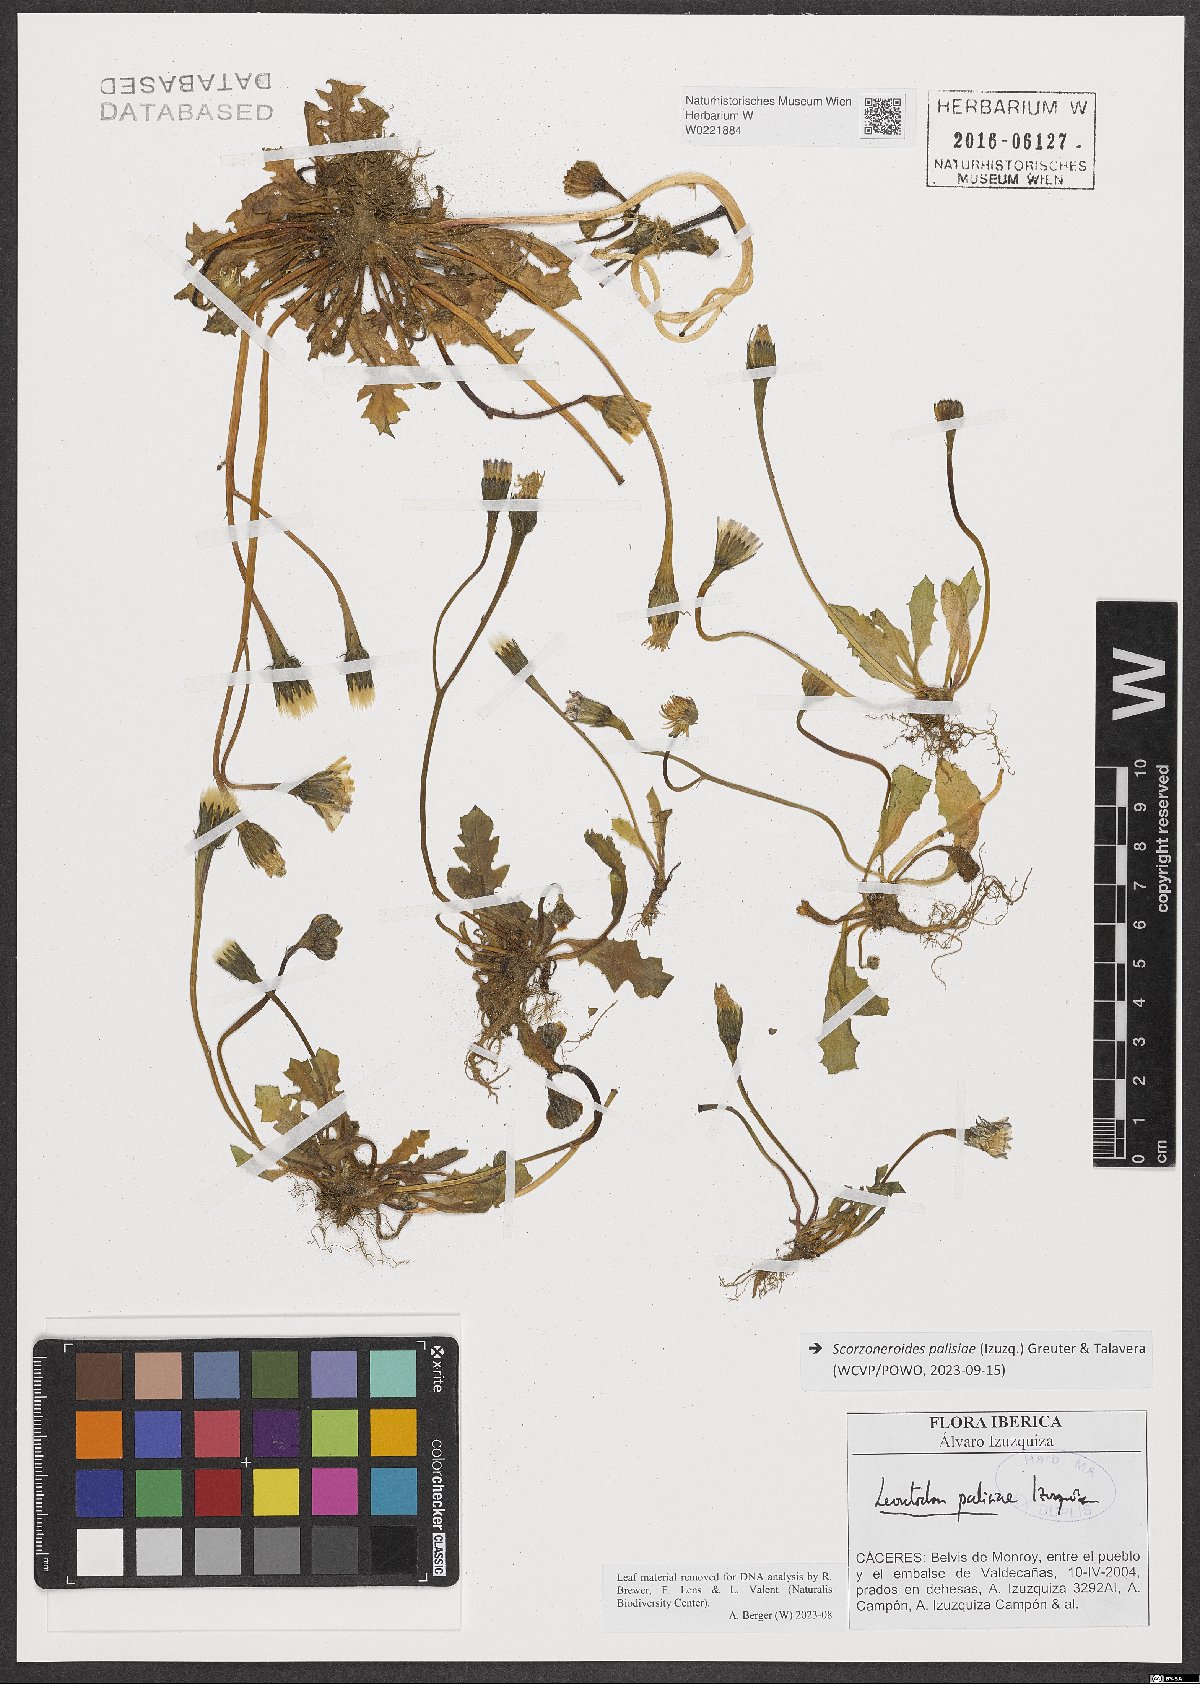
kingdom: Plantae
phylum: Tracheophyta
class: Magnoliopsida
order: Asterales
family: Asteraceae
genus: Scorzoneroides
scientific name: Scorzoneroides palisiae
